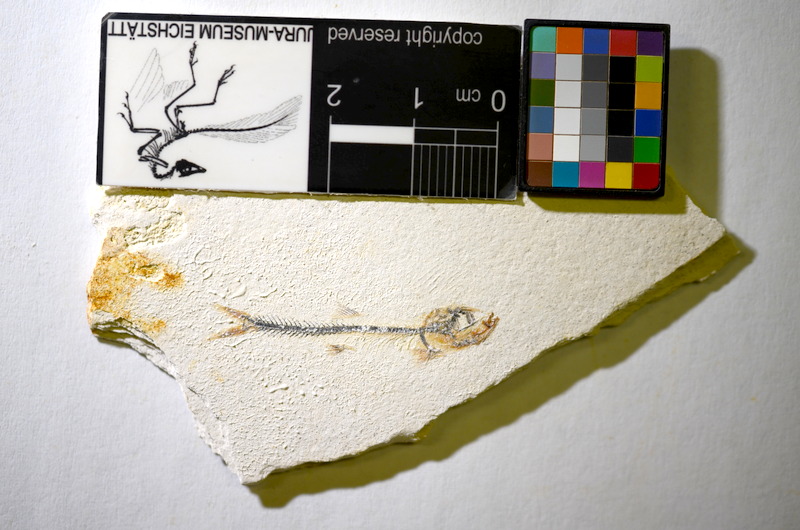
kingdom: Animalia
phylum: Chordata
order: Salmoniformes
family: Orthogonikleithridae
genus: Orthogonikleithrus
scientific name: Orthogonikleithrus hoelli
